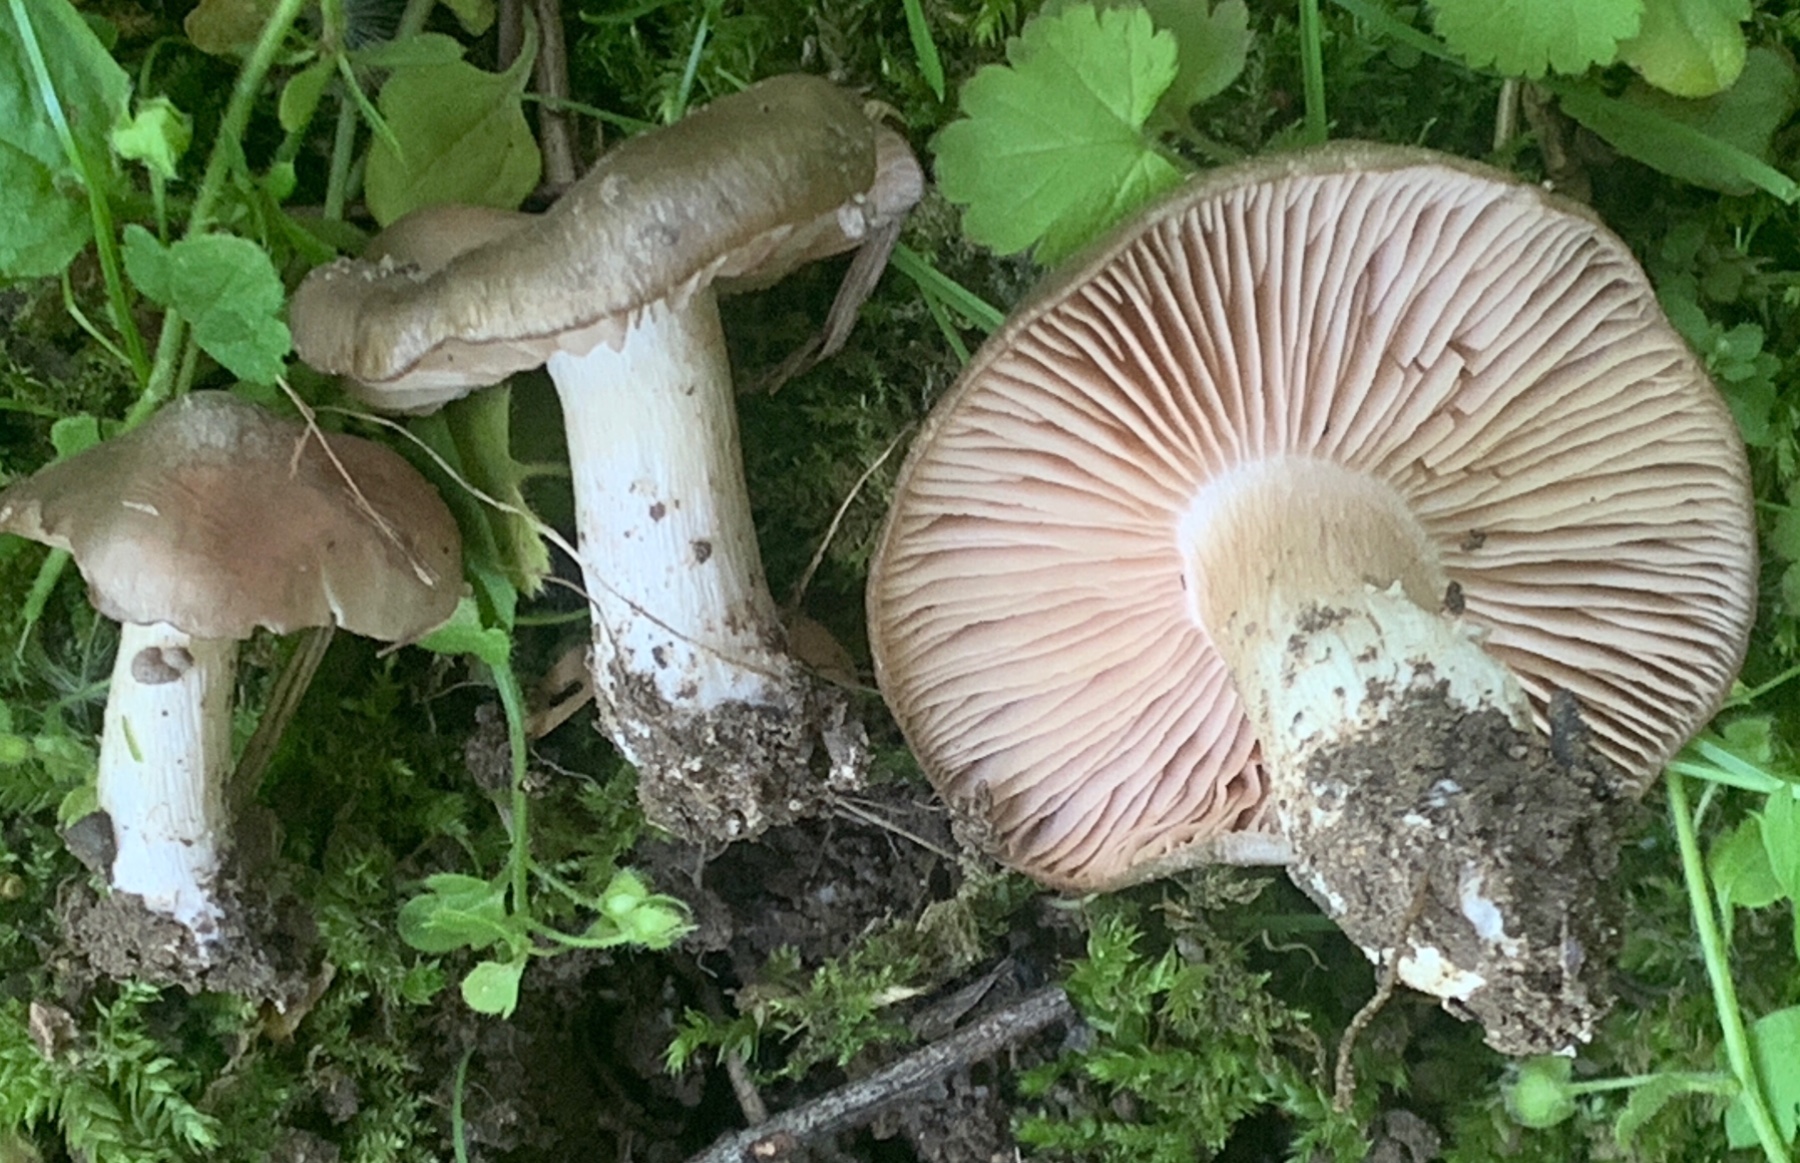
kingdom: Fungi
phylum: Basidiomycota
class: Agaricomycetes
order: Agaricales
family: Entolomataceae
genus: Entoloma
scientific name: Entoloma clypeatum
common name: flammet rødblad
